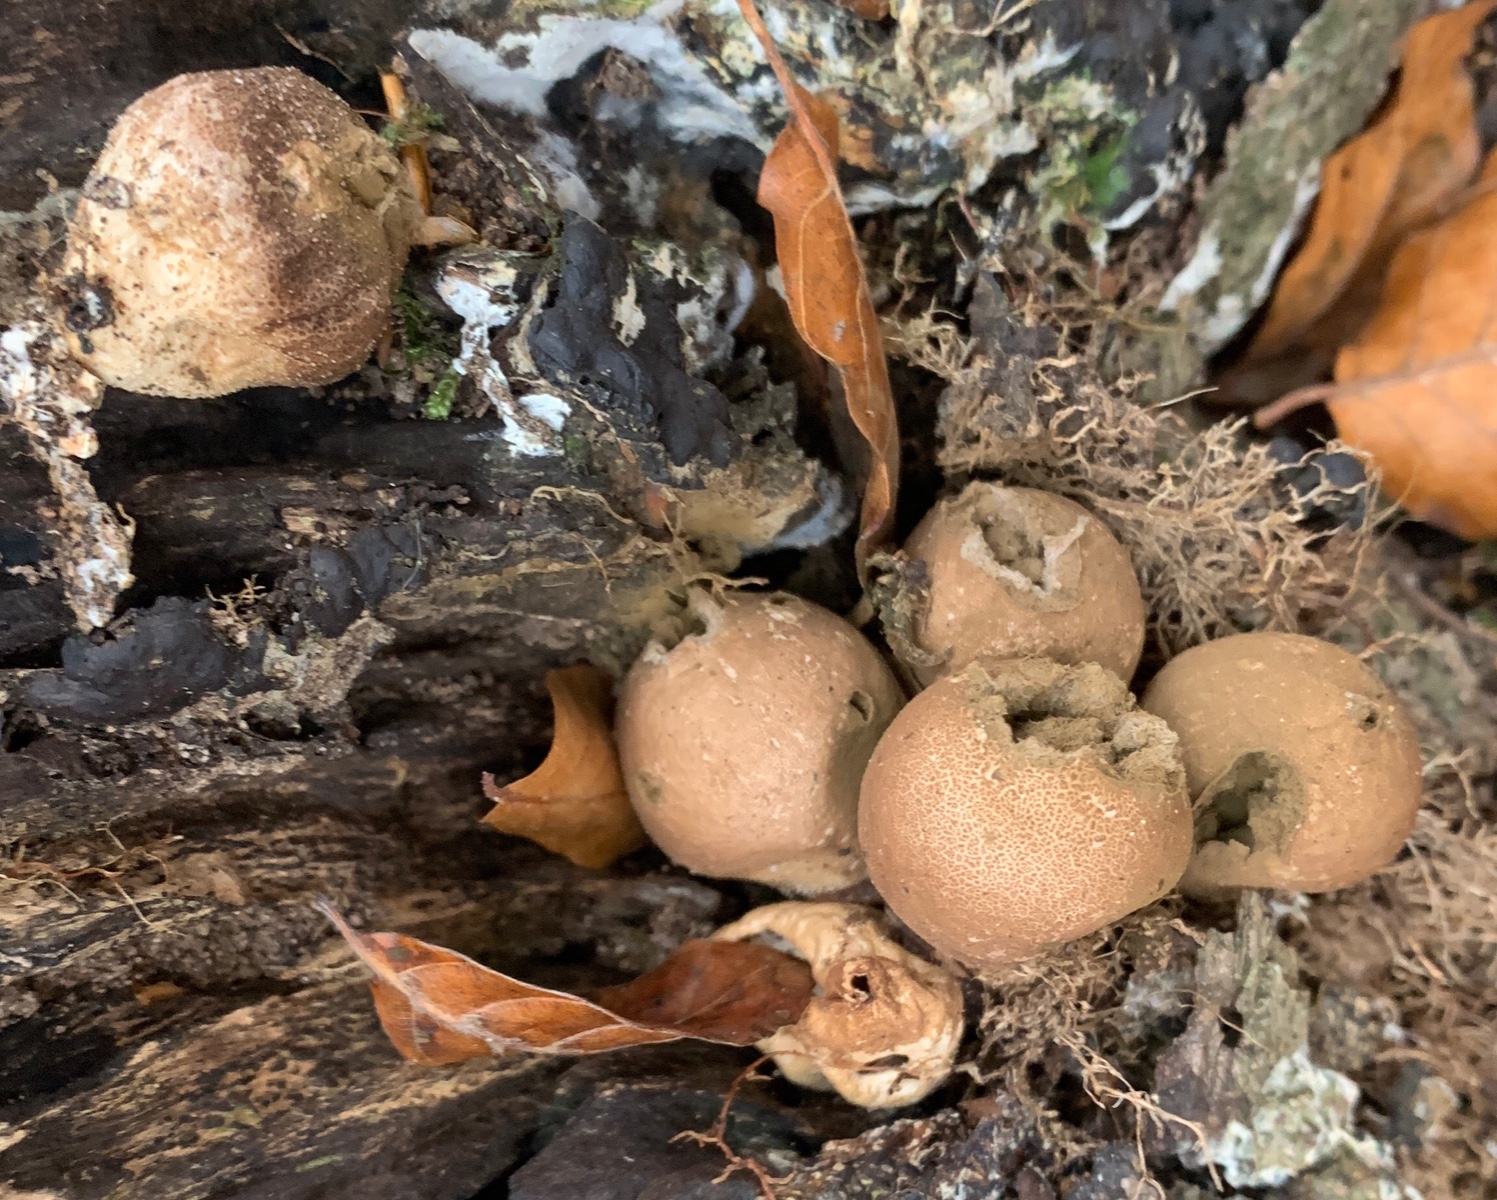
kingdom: Fungi
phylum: Basidiomycota
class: Agaricomycetes
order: Agaricales
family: Lycoperdaceae
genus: Apioperdon
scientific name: Apioperdon pyriforme
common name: pære-støvbold
